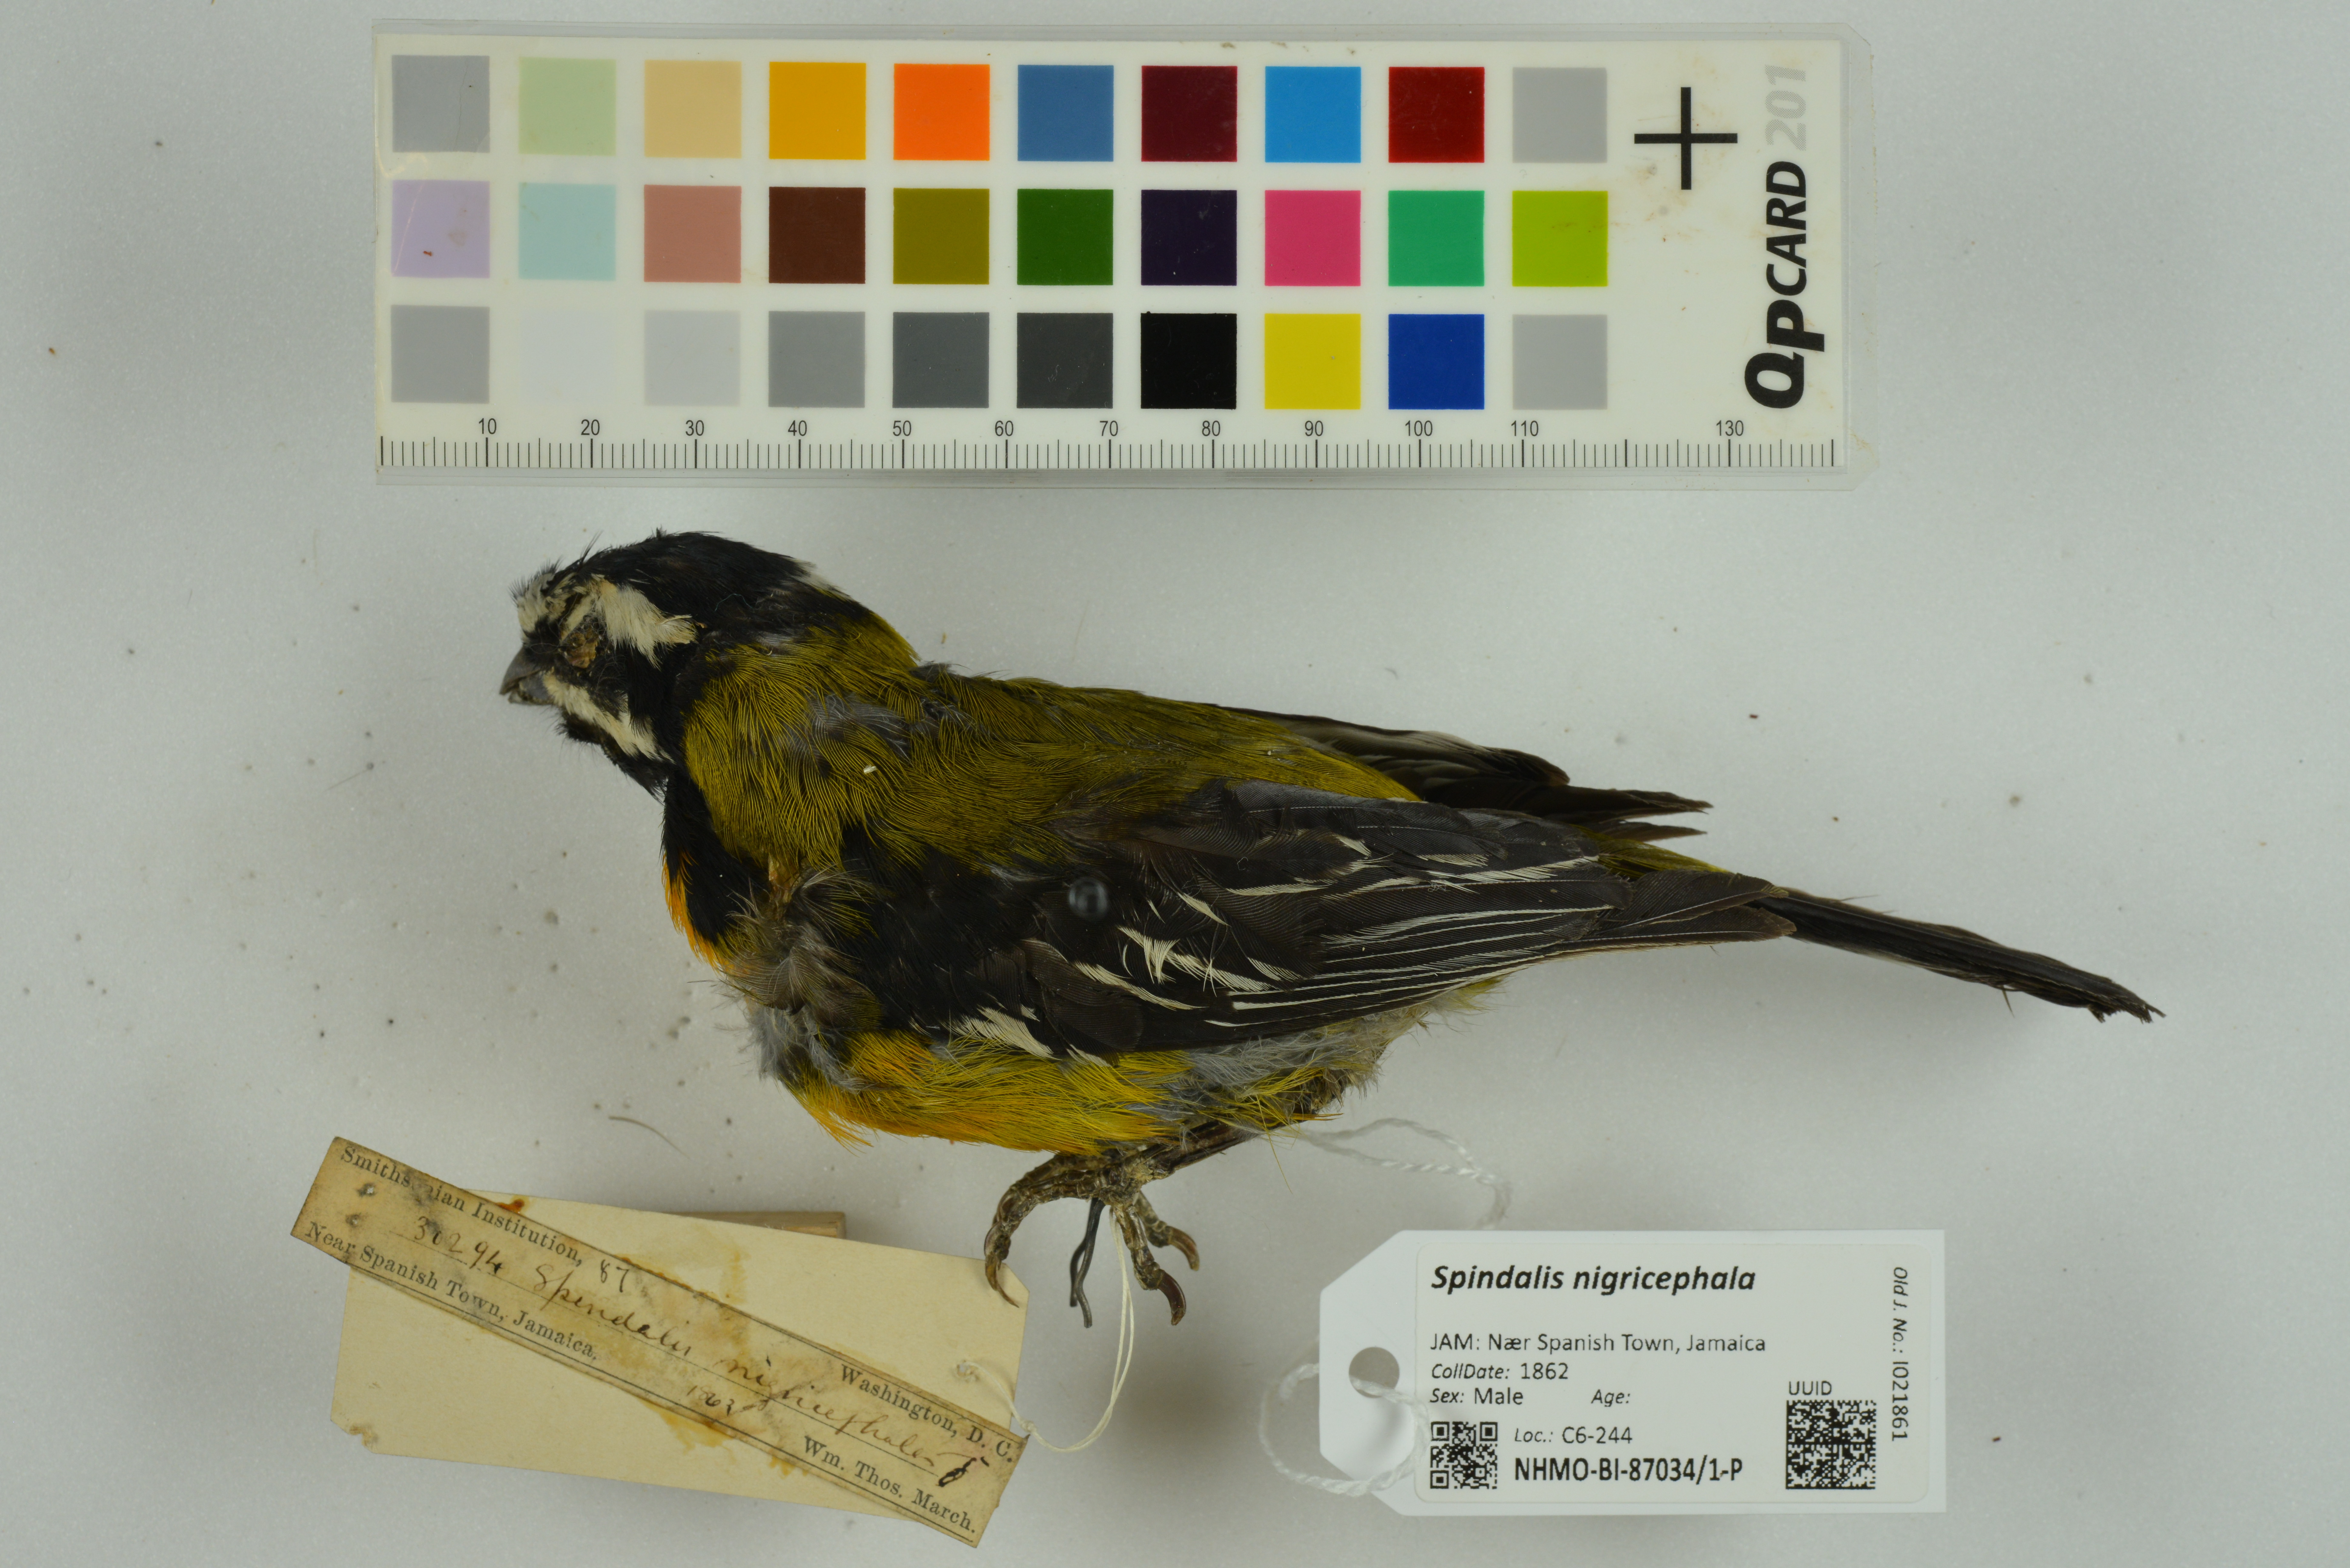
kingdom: Animalia
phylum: Chordata
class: Aves
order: Passeriformes
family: Spindalidae
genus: Spindalis
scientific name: Spindalis nigricephala
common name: Jamaican spindalis
